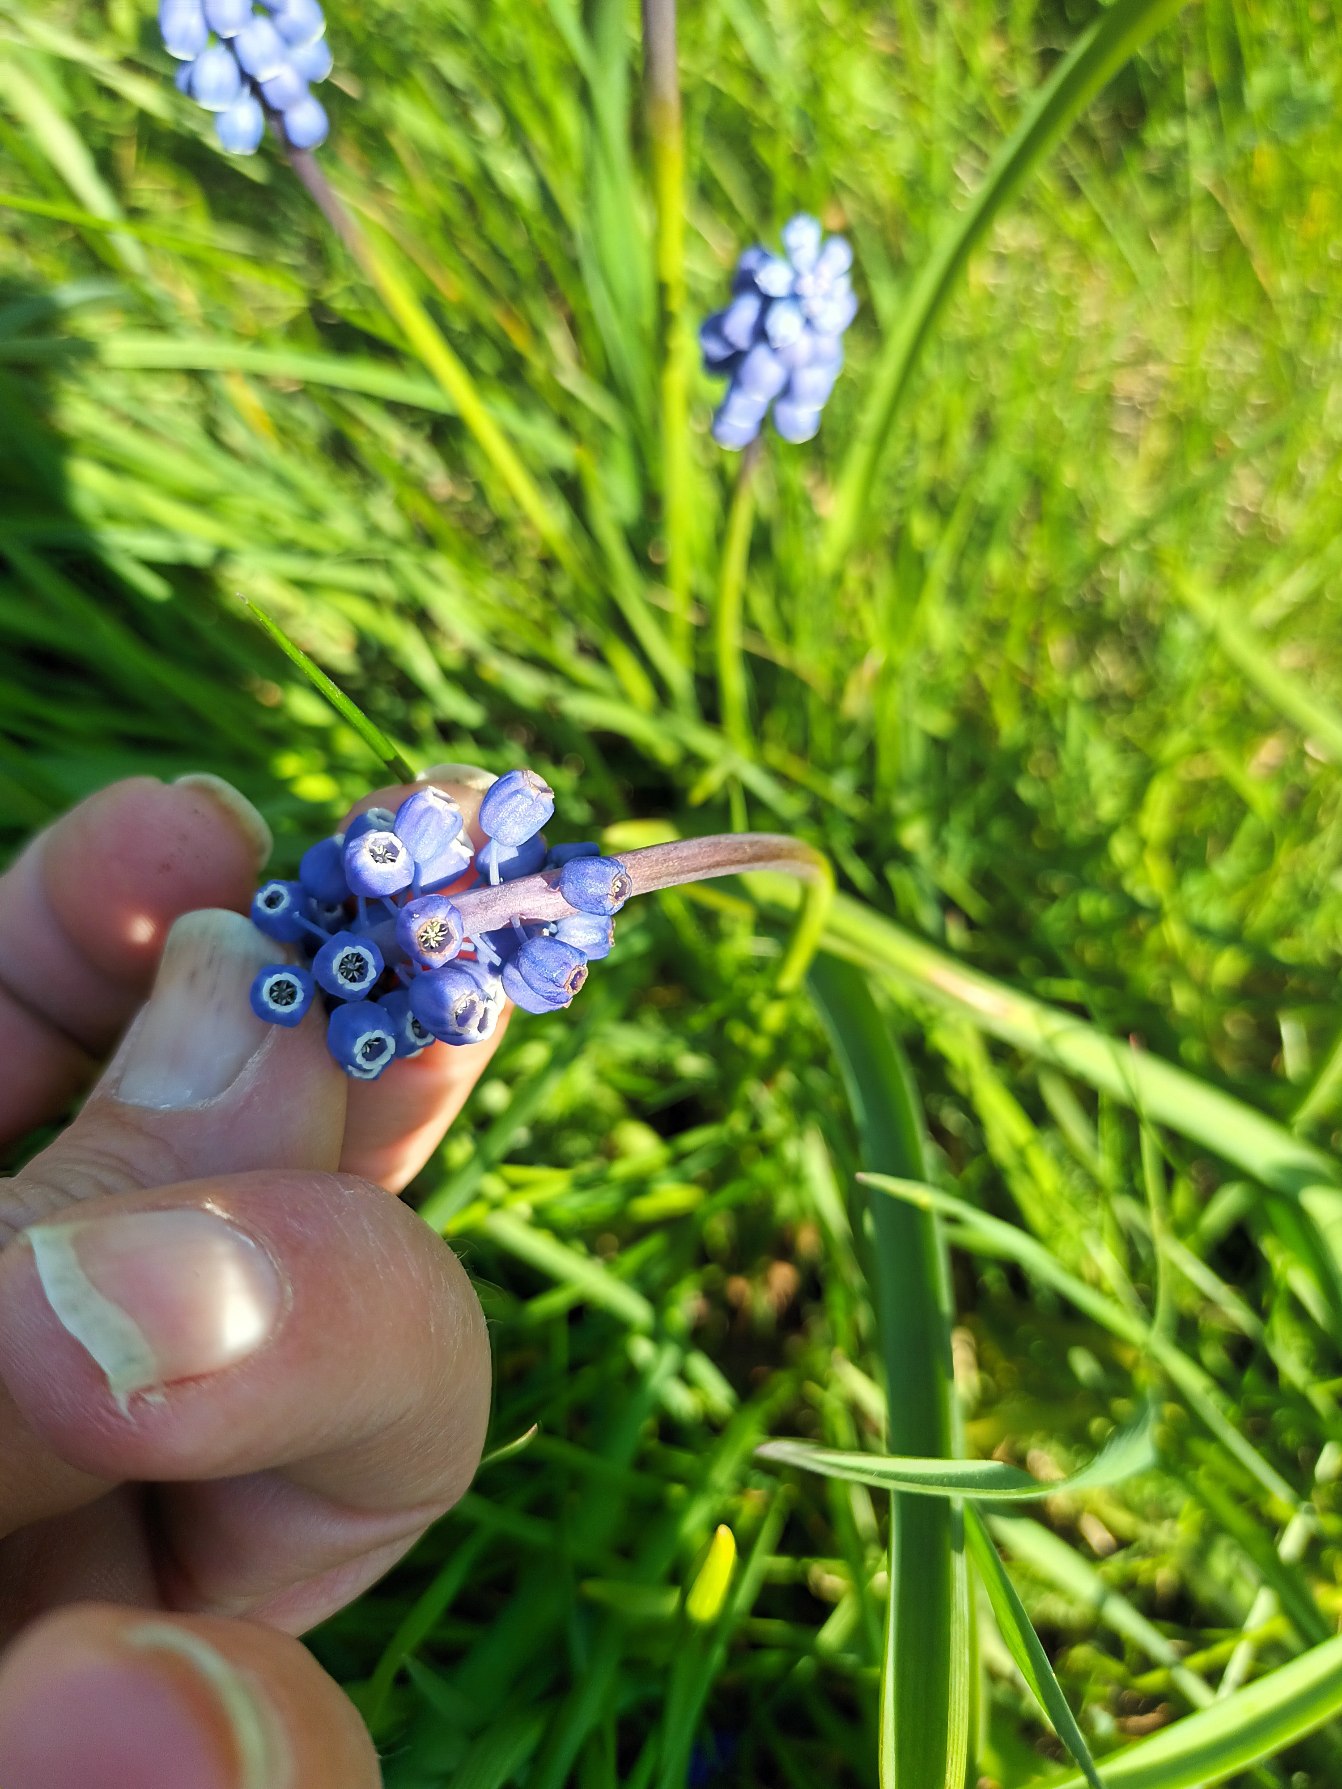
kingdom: Plantae
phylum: Tracheophyta
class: Liliopsida
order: Asparagales
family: Asparagaceae
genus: Muscari
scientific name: Muscari botryoides
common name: Perlehyacint
